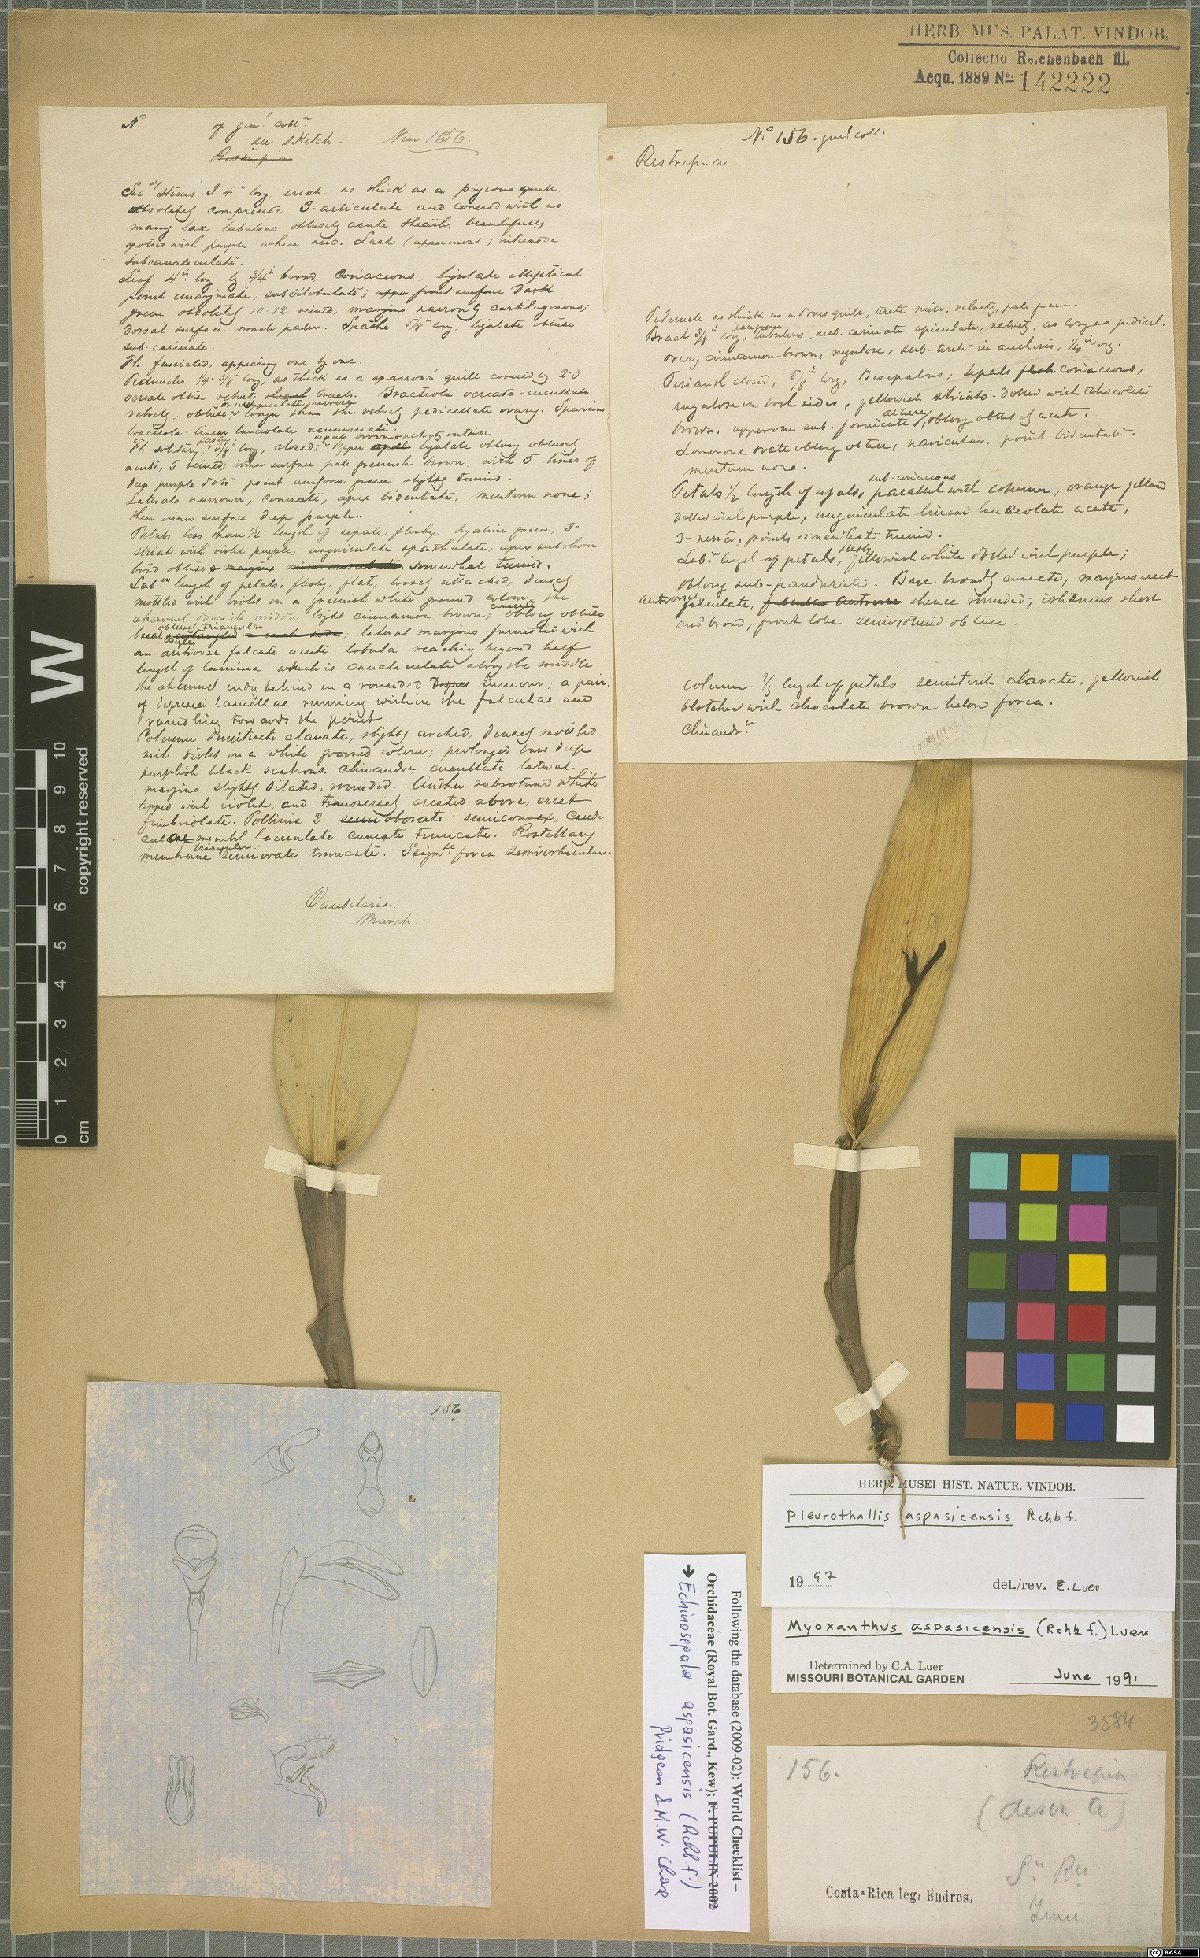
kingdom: Plantae
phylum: Tracheophyta
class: Liliopsida
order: Asparagales
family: Orchidaceae
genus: Echinosepala
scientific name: Echinosepala aspasicensis
